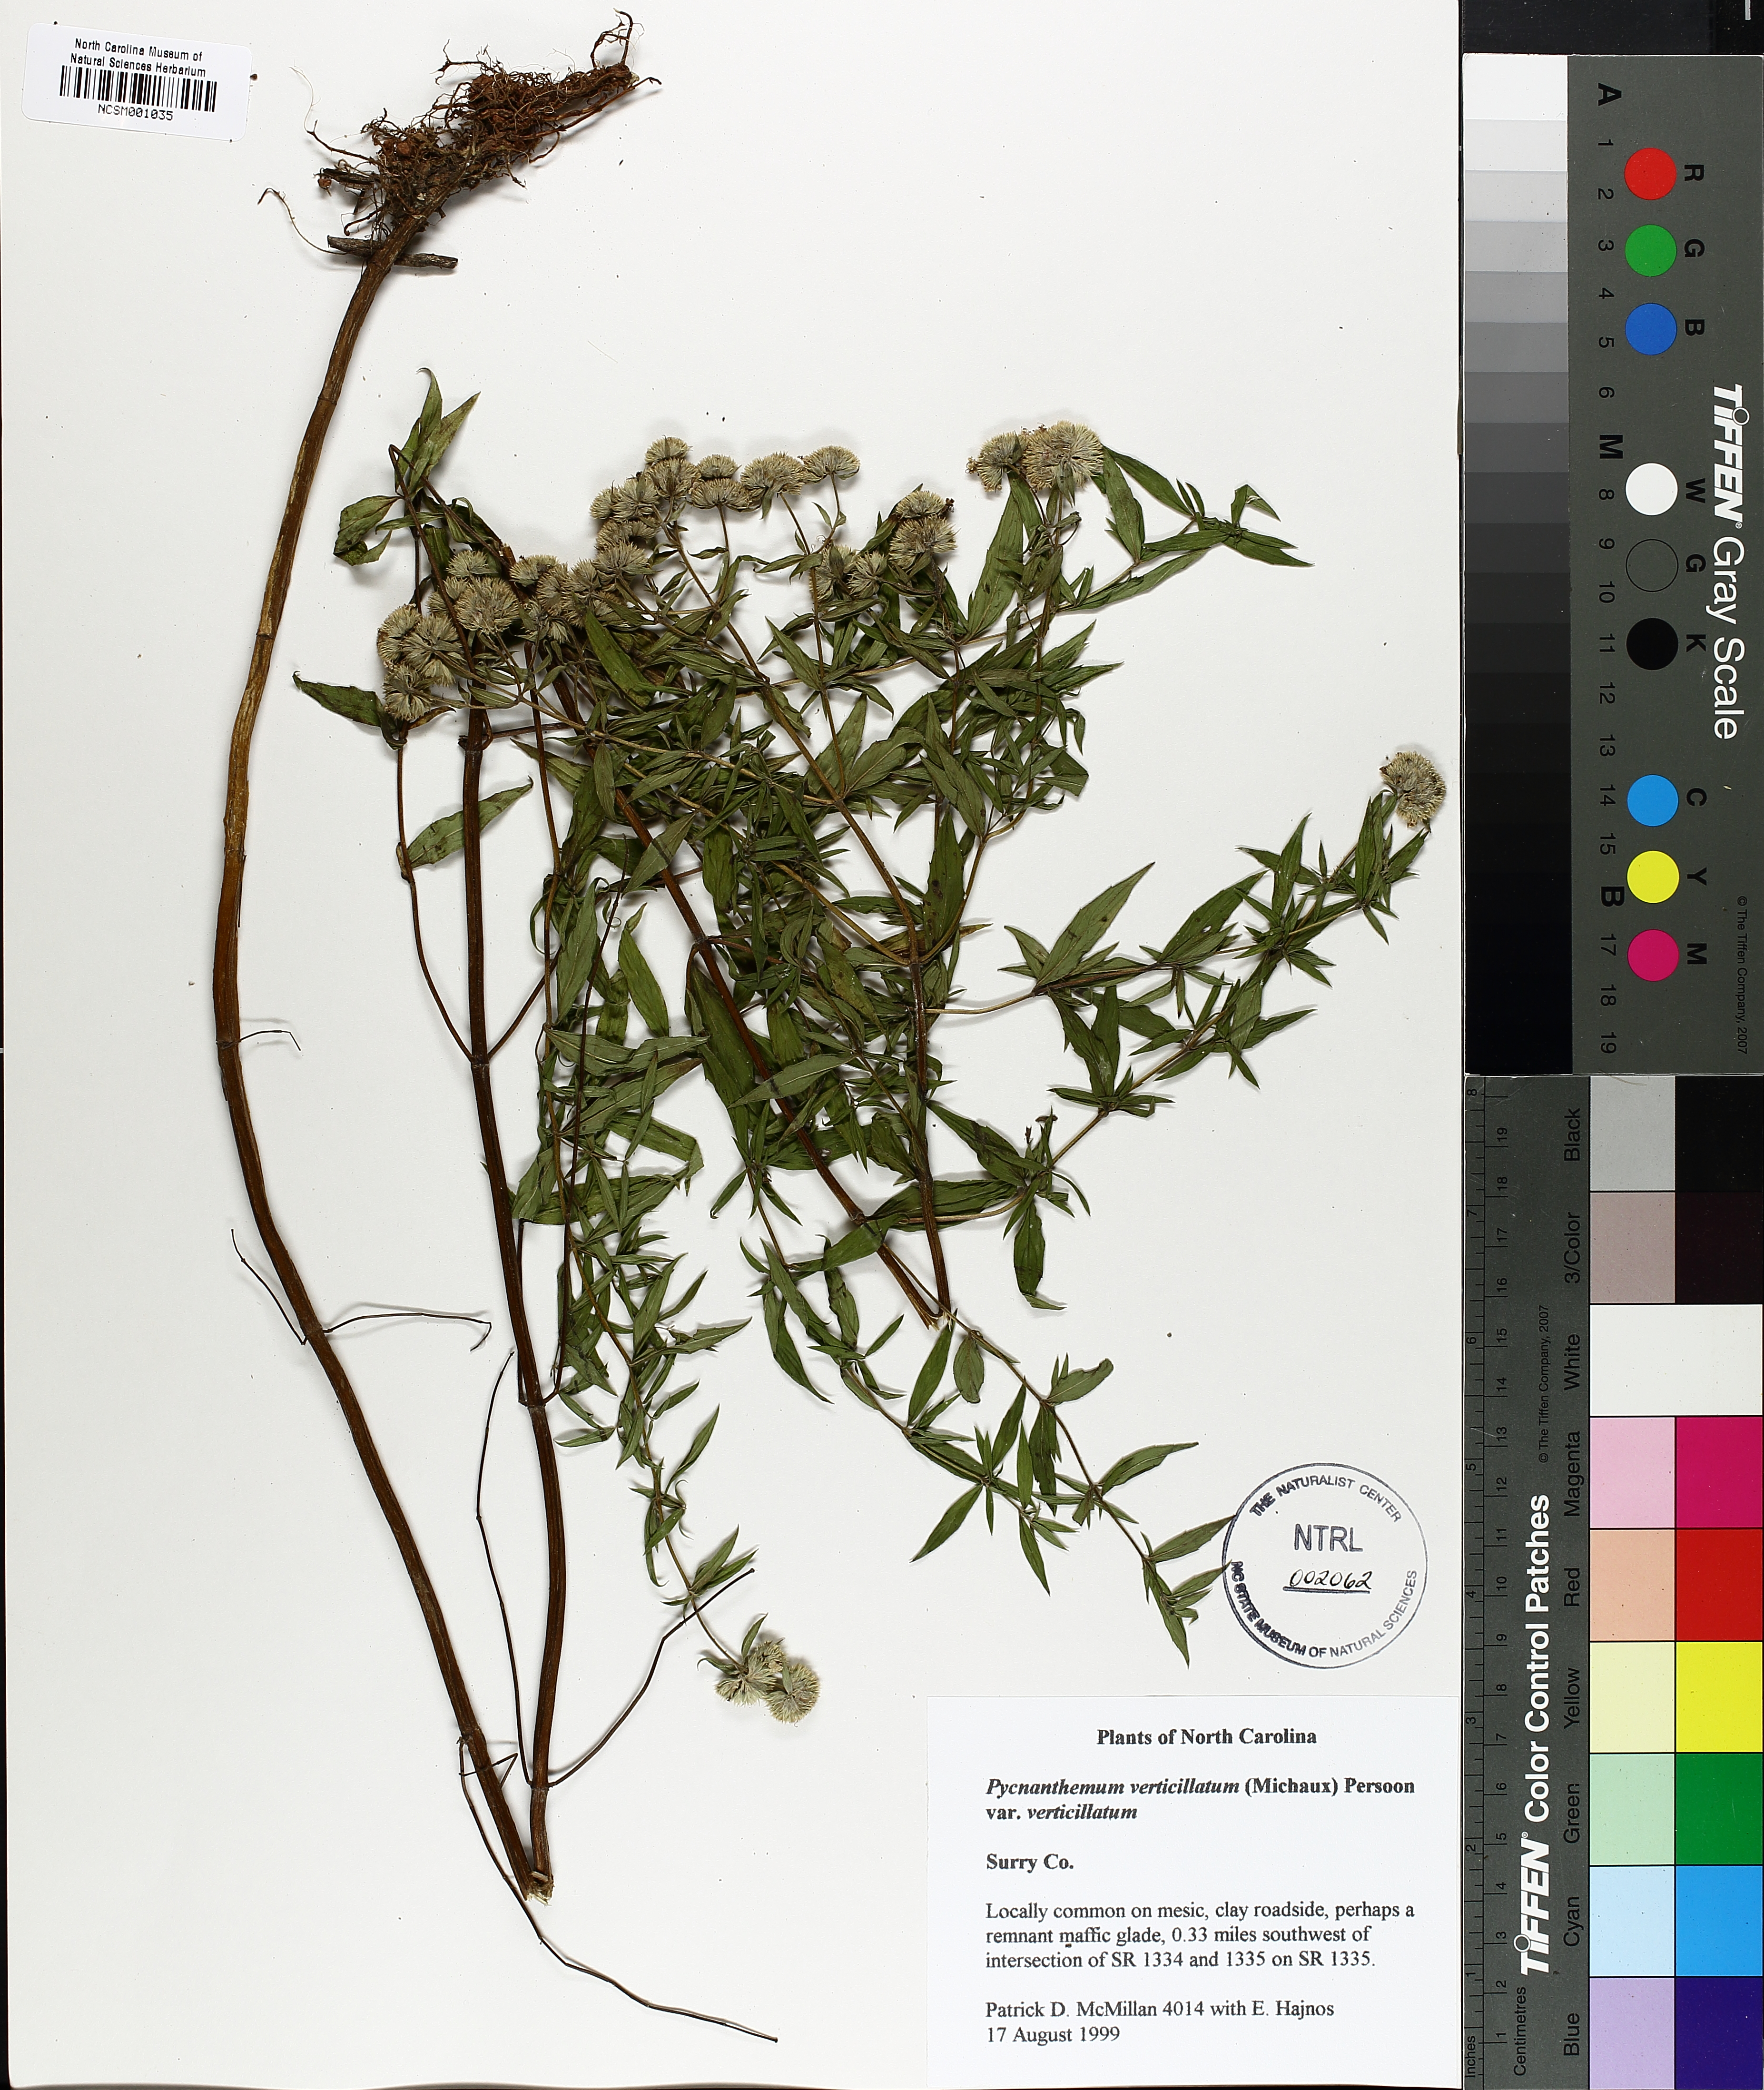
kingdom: Plantae
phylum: Tracheophyta
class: Magnoliopsida
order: Lamiales
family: Lamiaceae
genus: Pycnanthemum
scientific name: Pycnanthemum verticillatum
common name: Whorled mountain-mint
